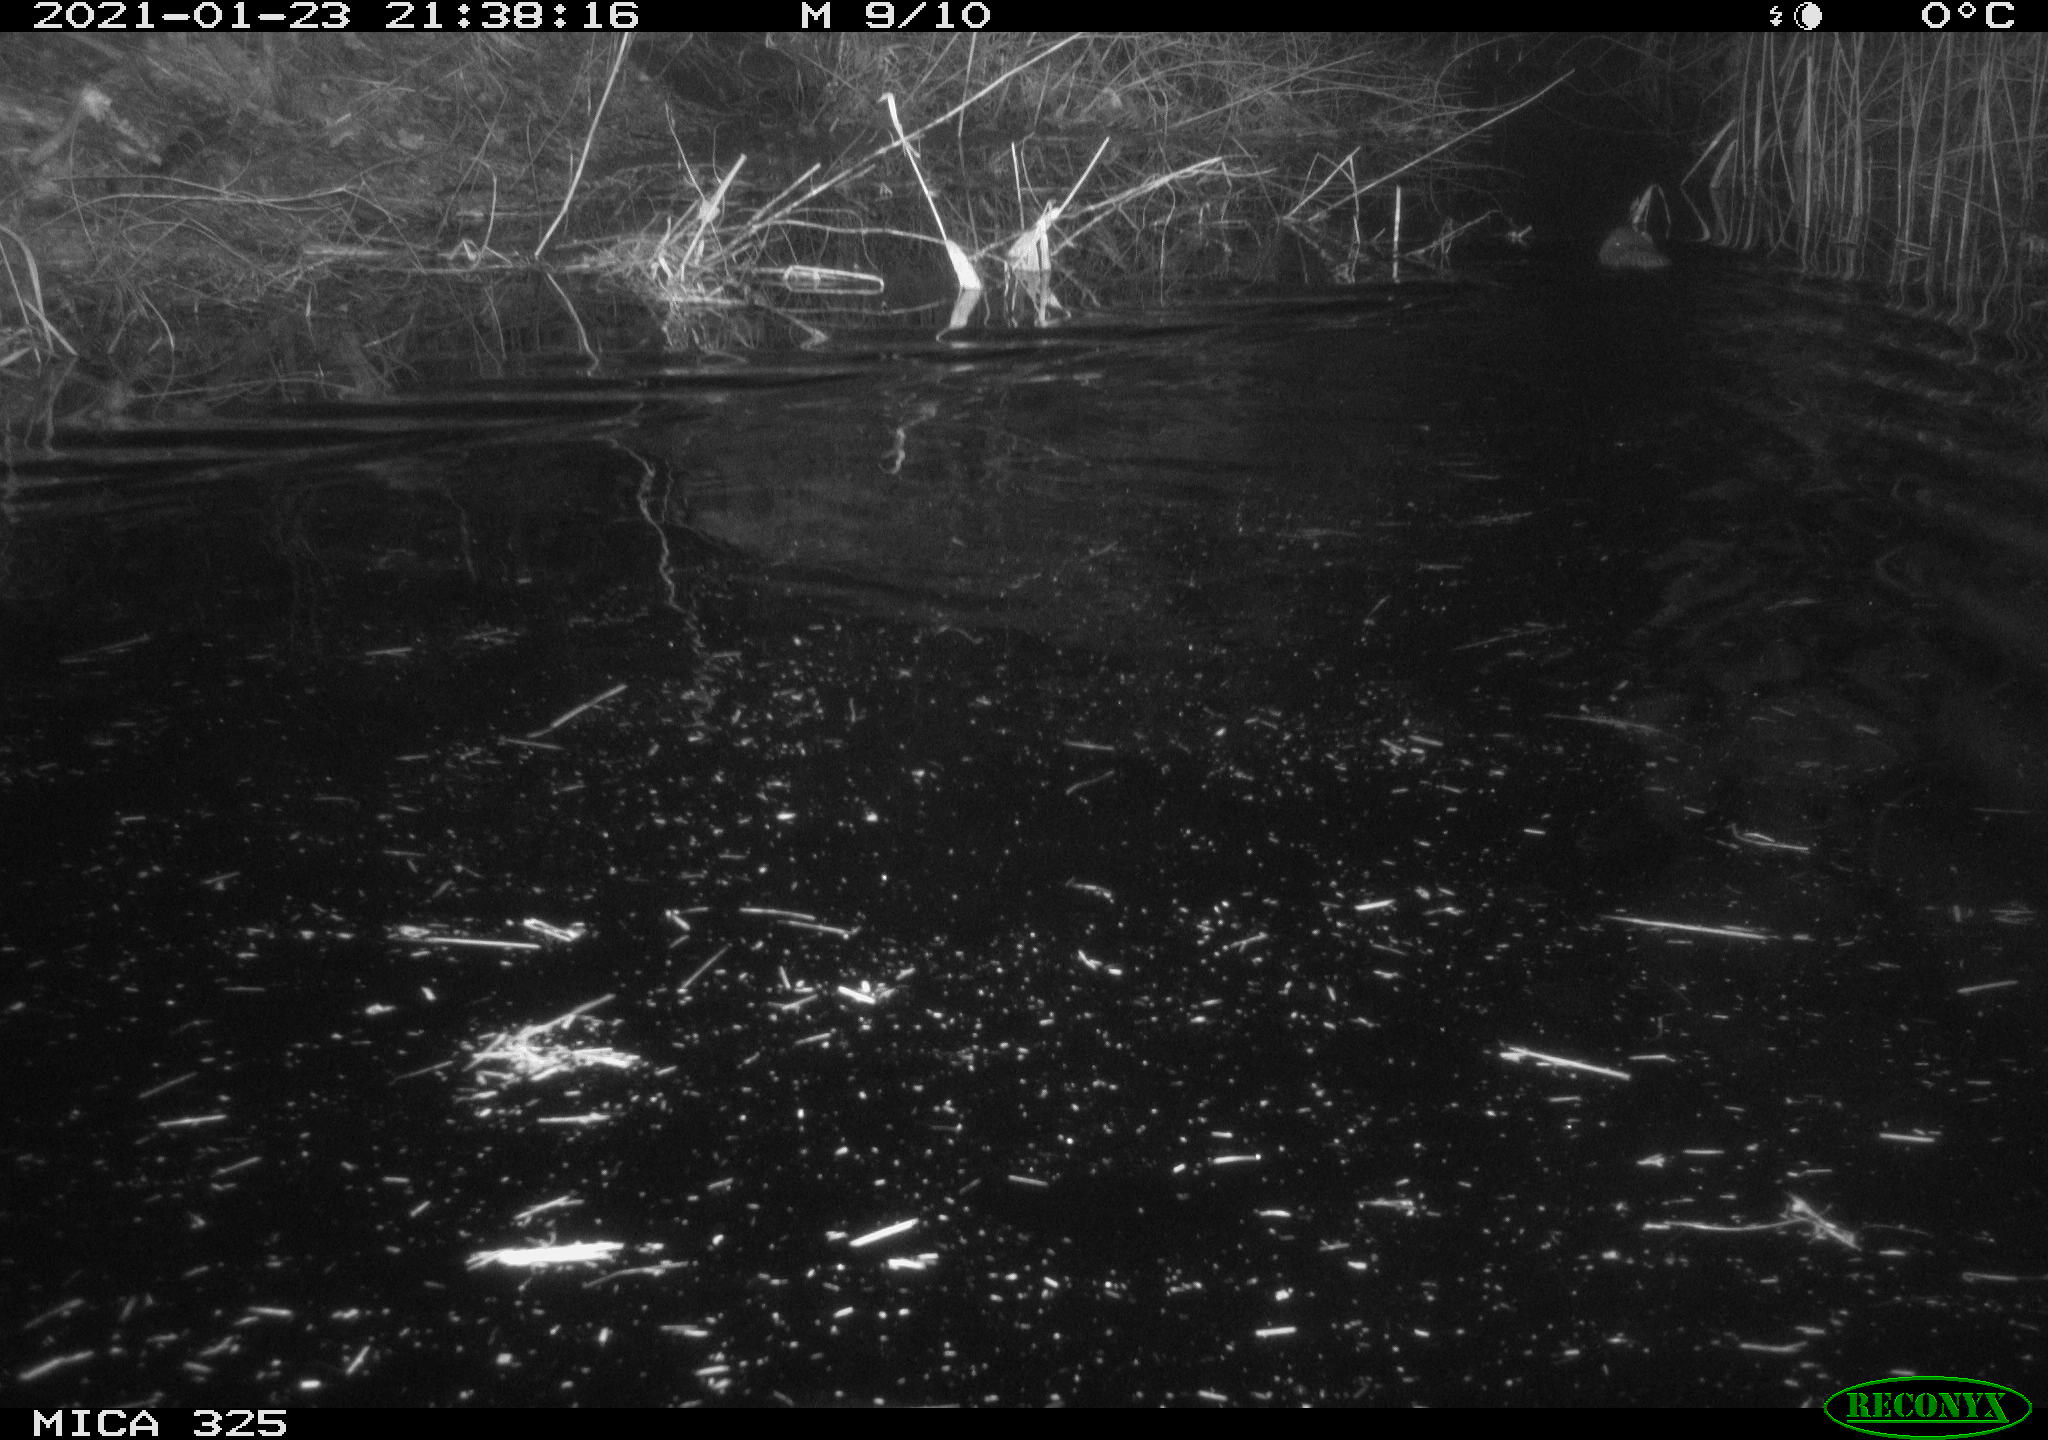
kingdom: Animalia
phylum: Chordata
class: Mammalia
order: Rodentia
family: Cricetidae
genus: Ondatra
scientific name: Ondatra zibethicus
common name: Muskrat
